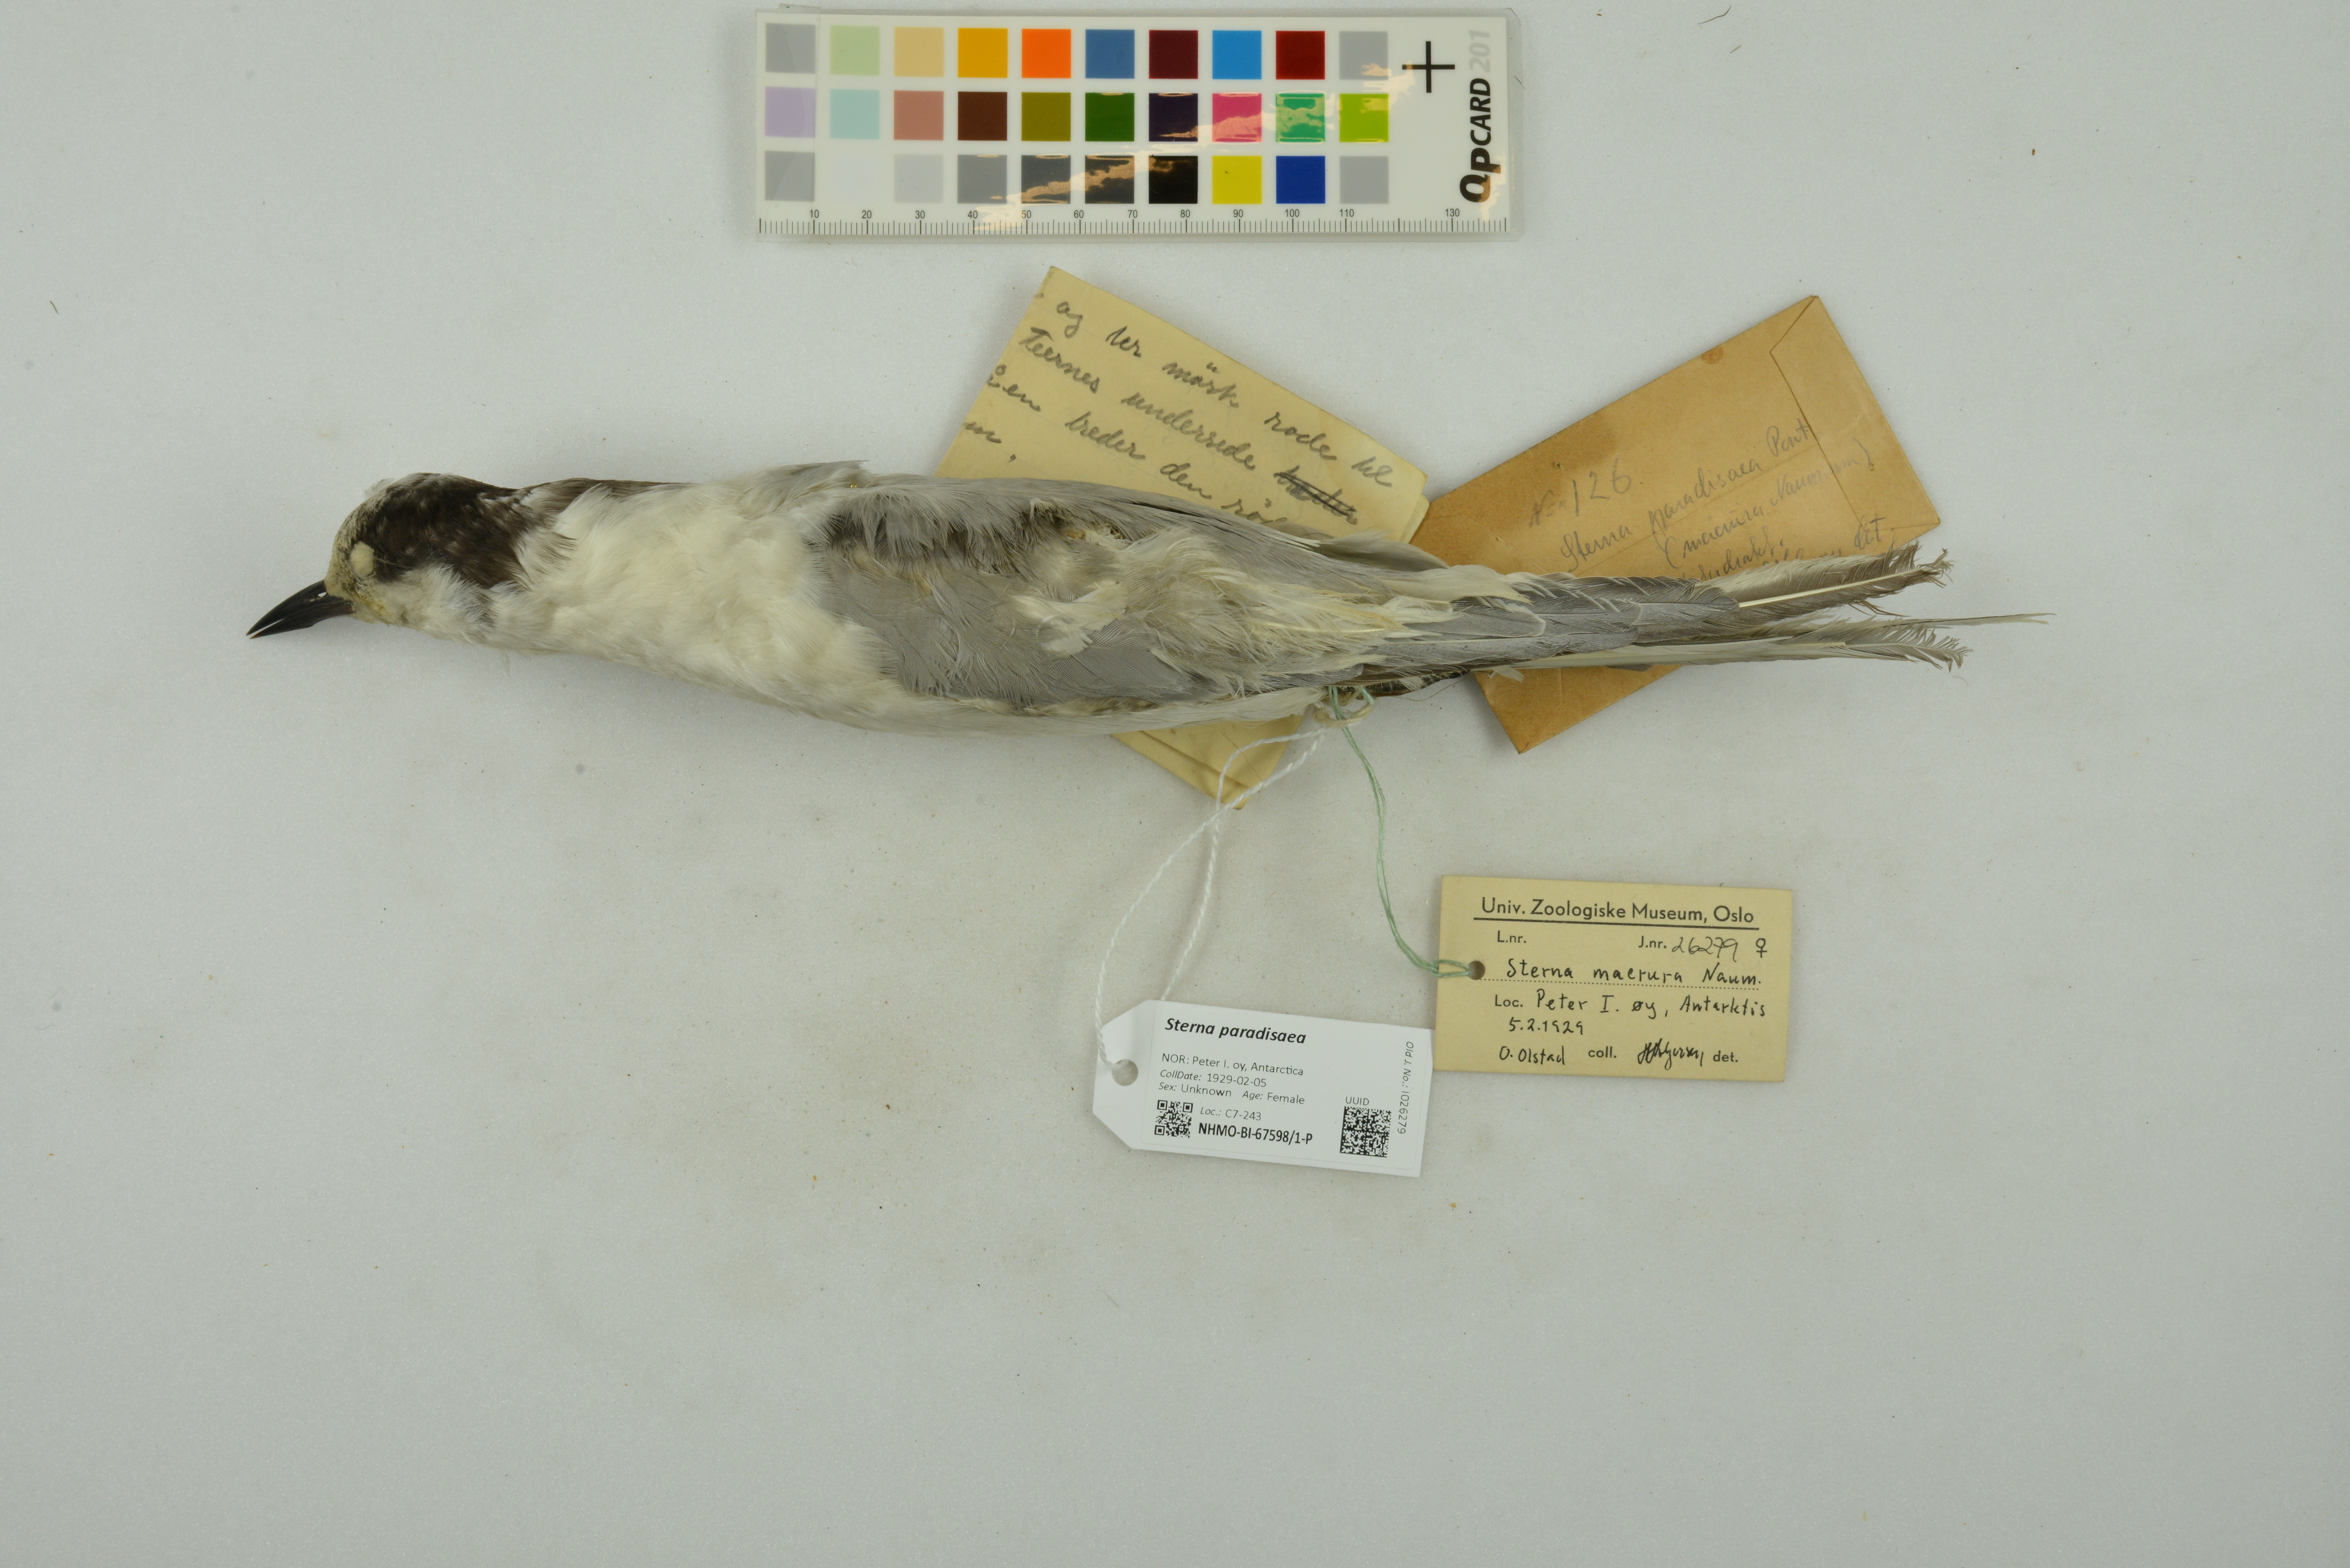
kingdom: Animalia
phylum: Chordata
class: Aves
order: Charadriiformes
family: Laridae
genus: Sterna
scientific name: Sterna paradisaea
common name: Arctic tern
